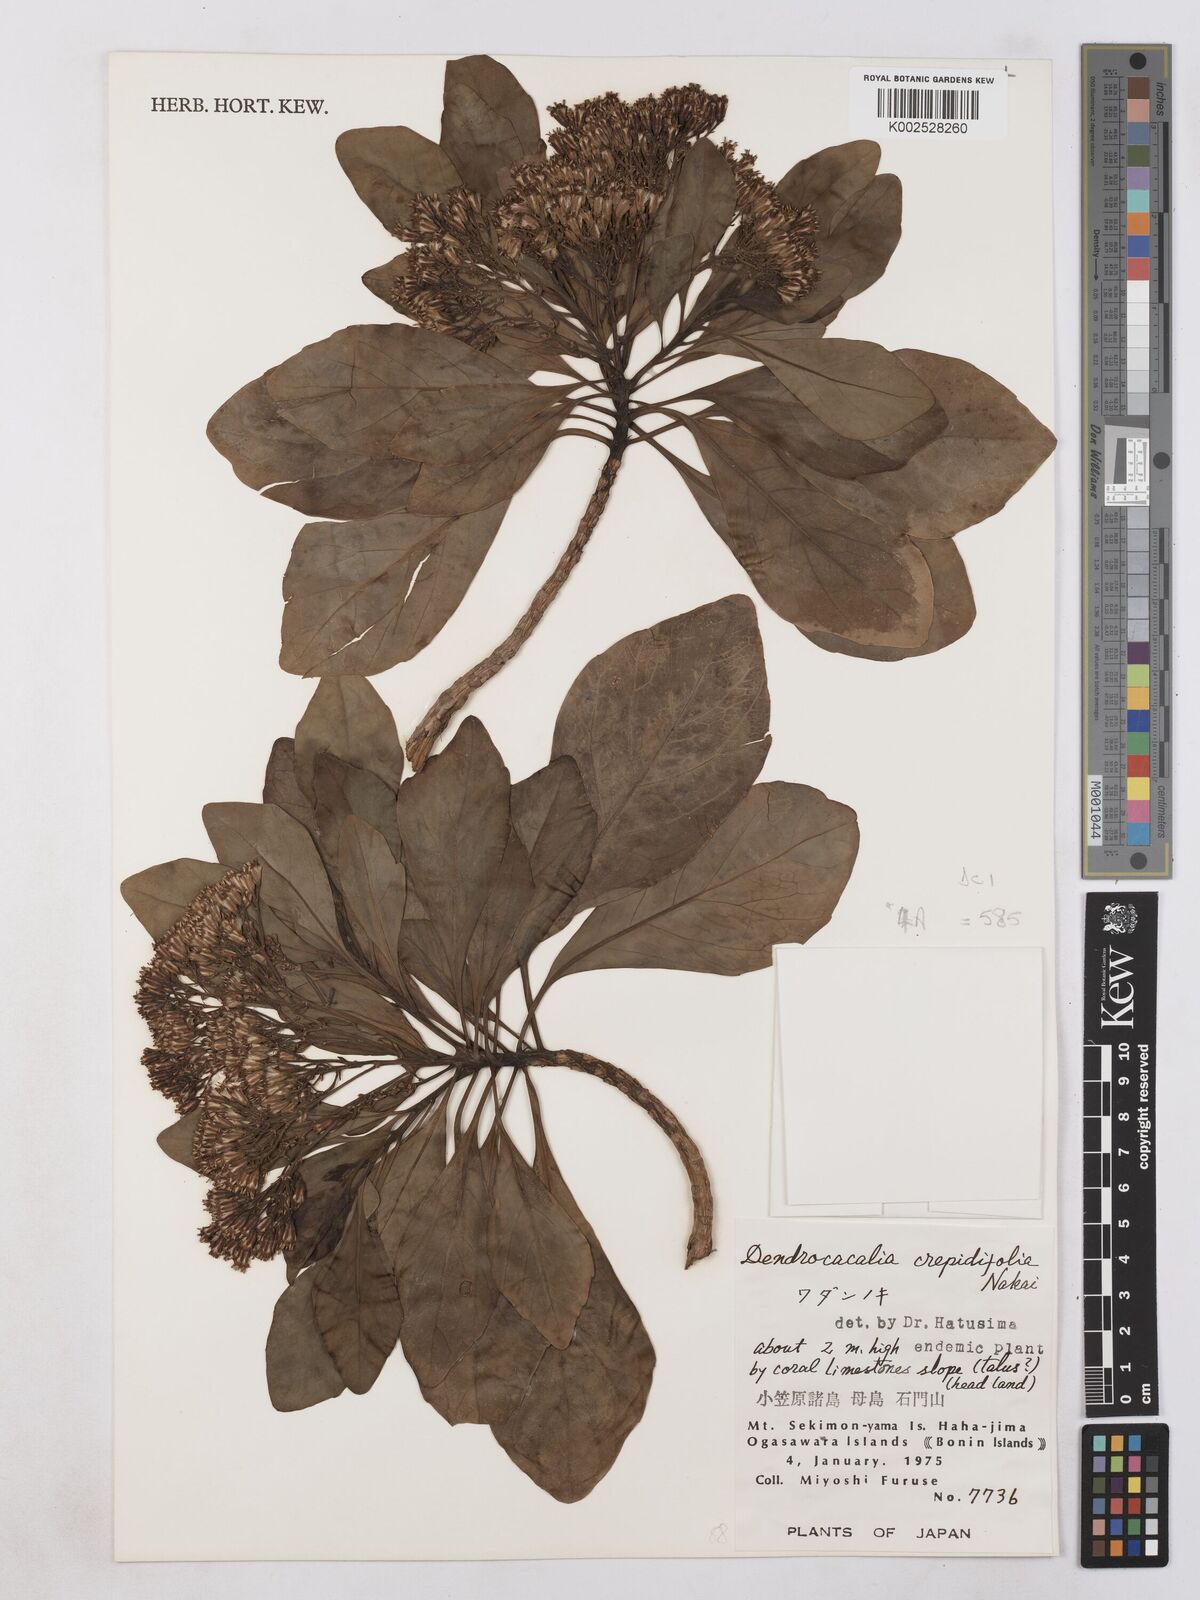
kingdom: Plantae
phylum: Tracheophyta
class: Magnoliopsida
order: Asterales
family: Asteraceae
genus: Dendrocacalia
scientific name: Dendrocacalia crepidifolia
